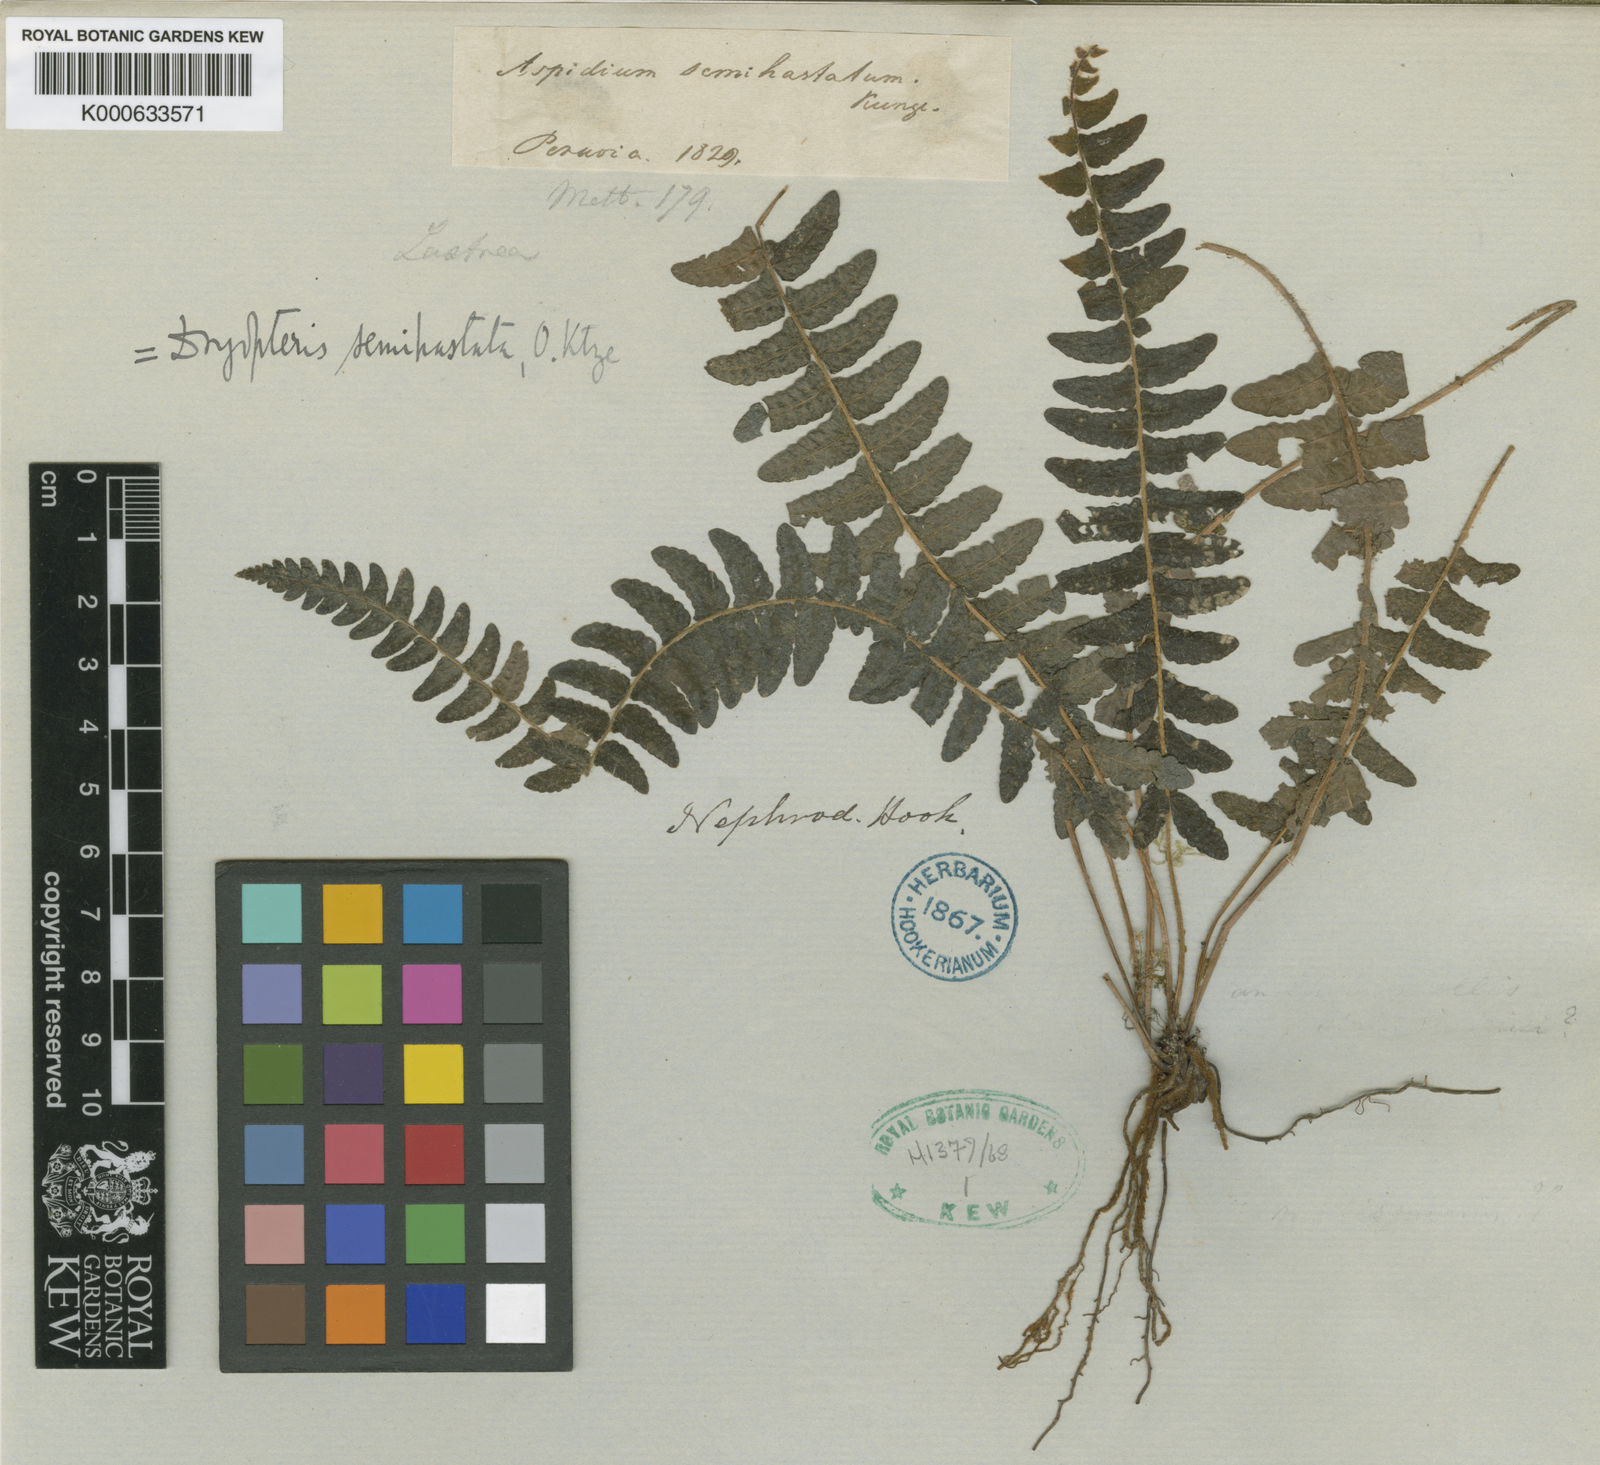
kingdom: Plantae
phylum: Tracheophyta
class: Polypodiopsida
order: Polypodiales
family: Thelypteridaceae
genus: Amauropelta
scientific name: Amauropelta
